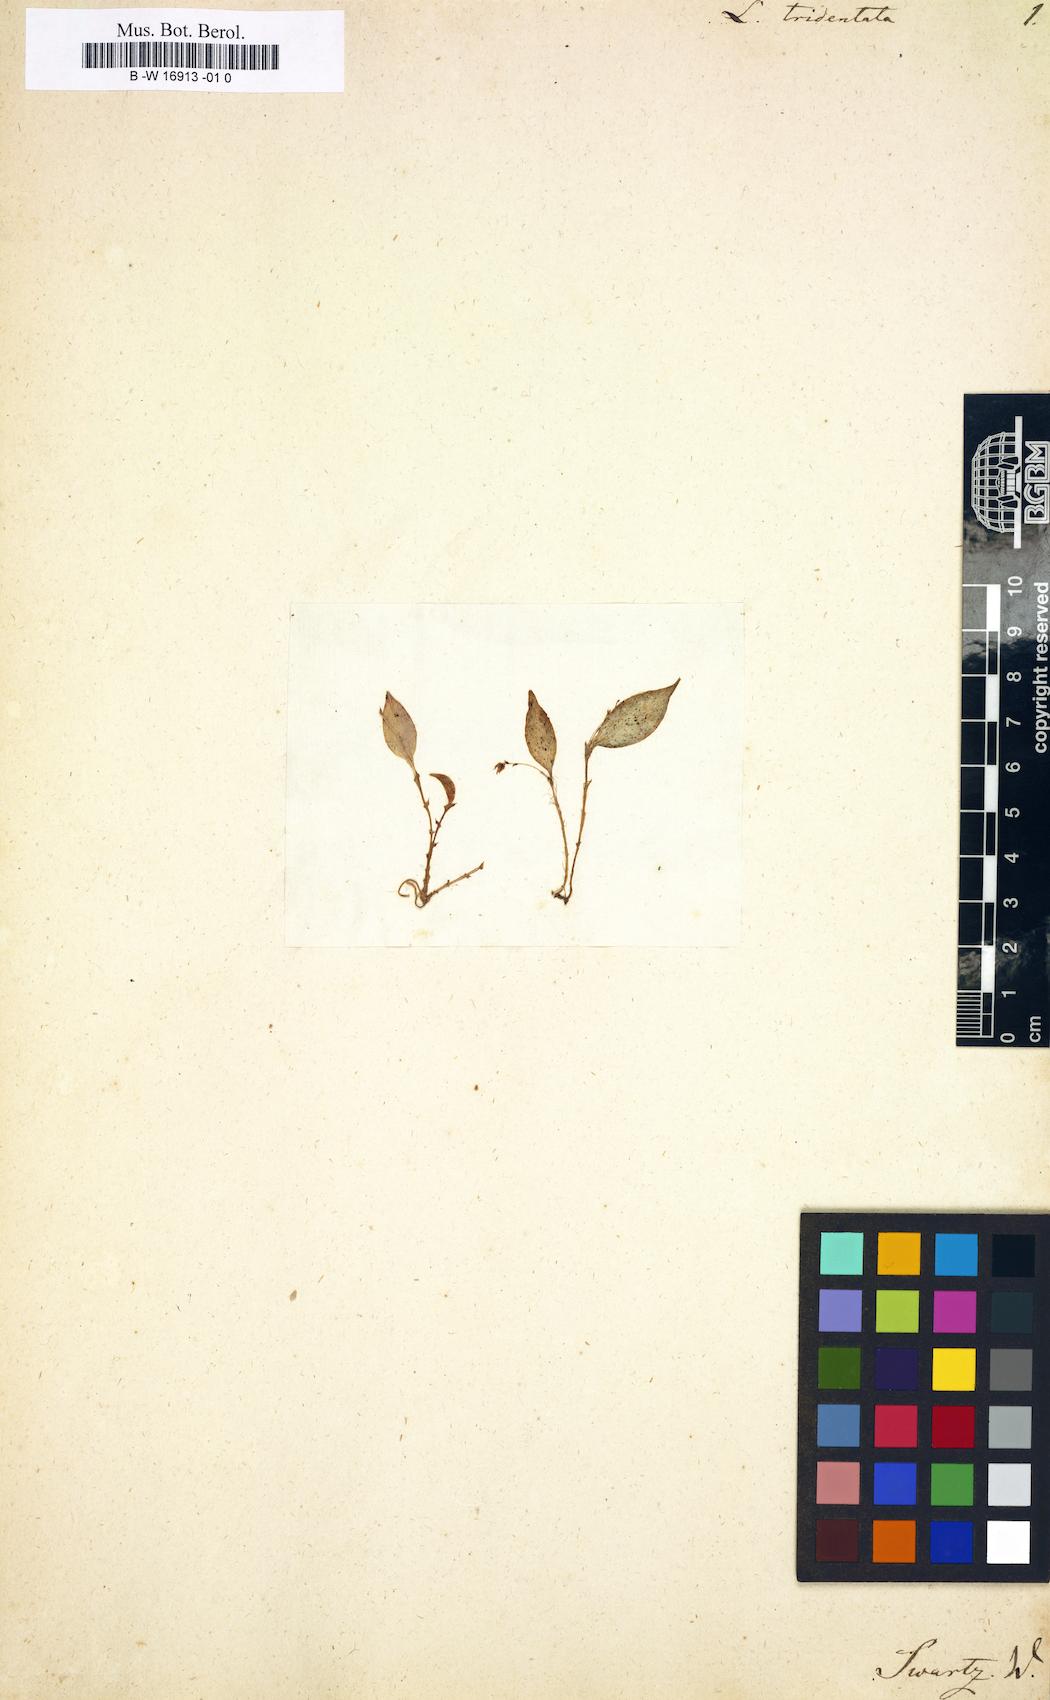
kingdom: Plantae
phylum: Tracheophyta
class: Liliopsida
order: Asparagales
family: Orchidaceae
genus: Lepanthes
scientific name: Lepanthes tridentata
